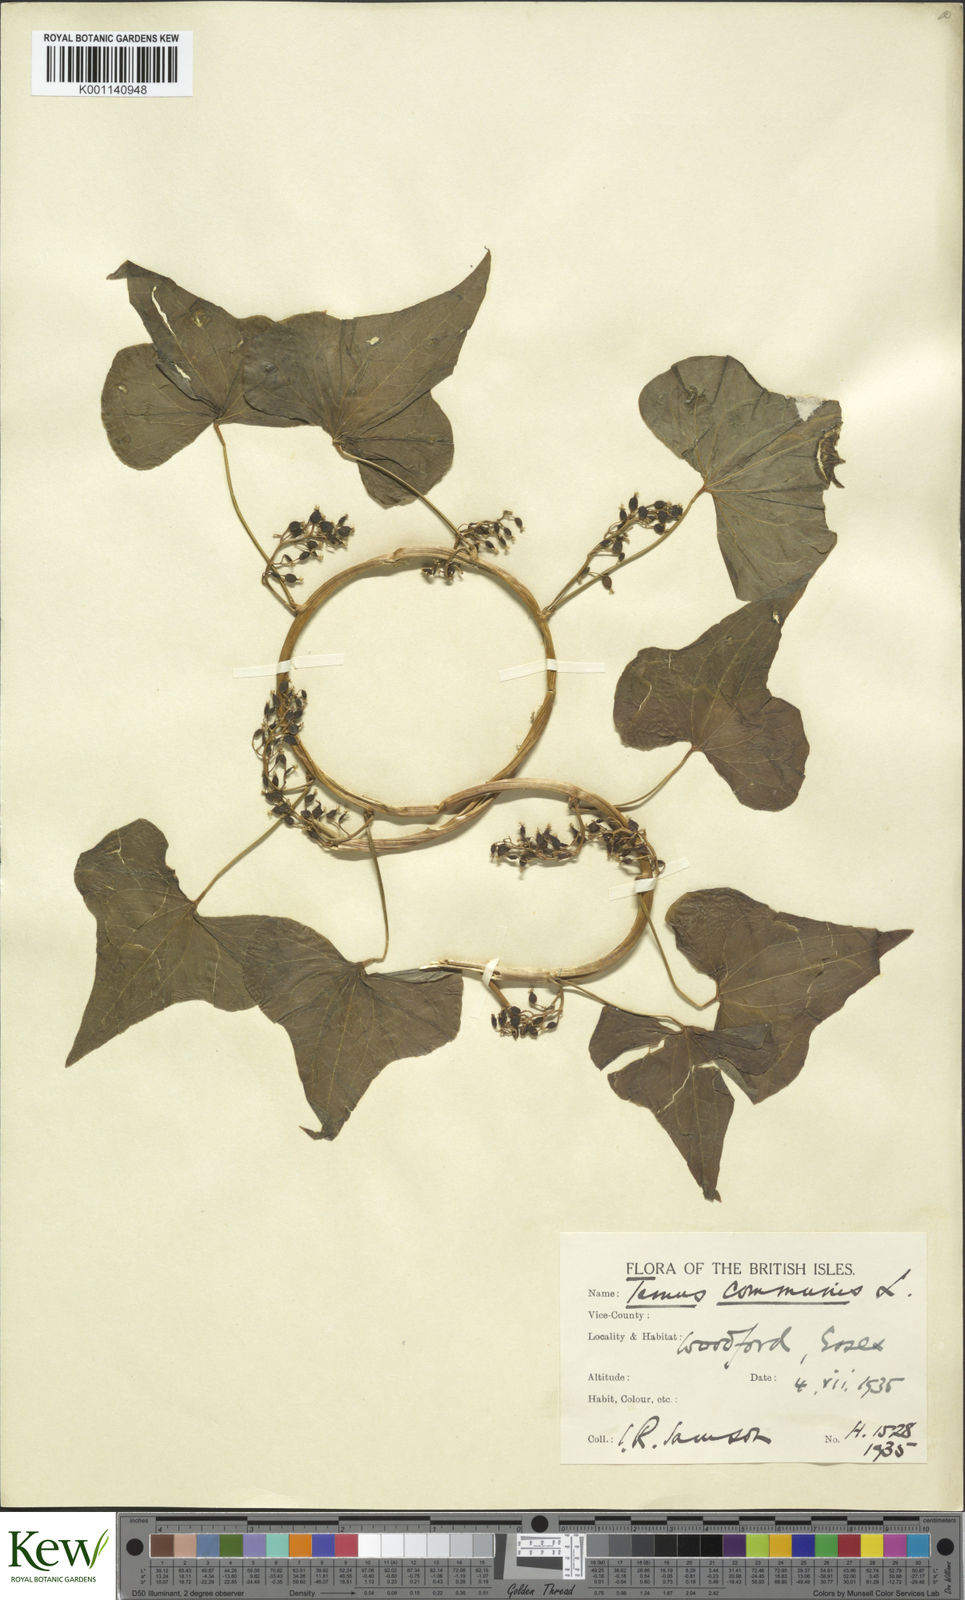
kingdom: Plantae
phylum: Tracheophyta
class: Liliopsida
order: Dioscoreales
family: Dioscoreaceae
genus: Dioscorea
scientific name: Dioscorea communis
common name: Black-bindweed
